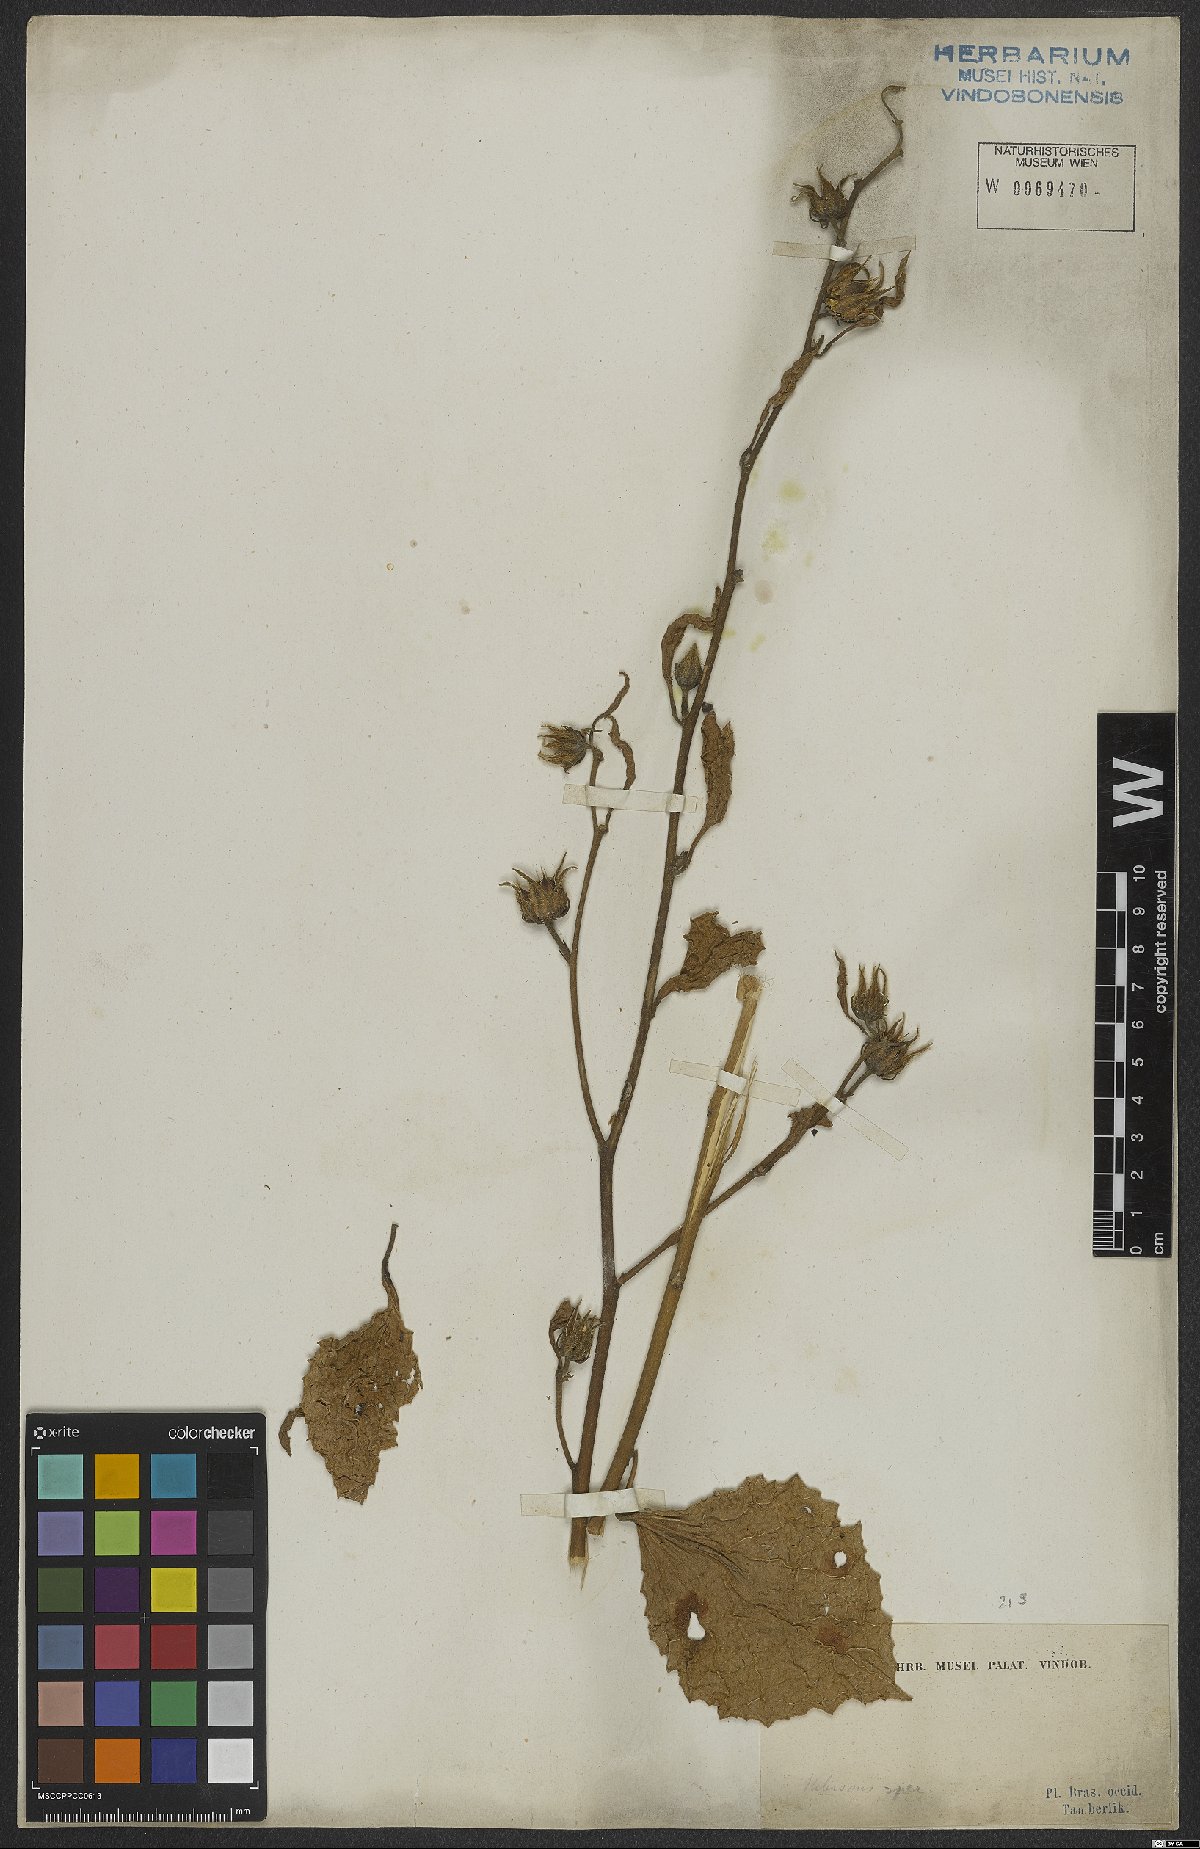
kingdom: Plantae
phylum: Tracheophyta
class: Magnoliopsida
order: Malvales
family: Malvaceae
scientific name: Malvaceae
